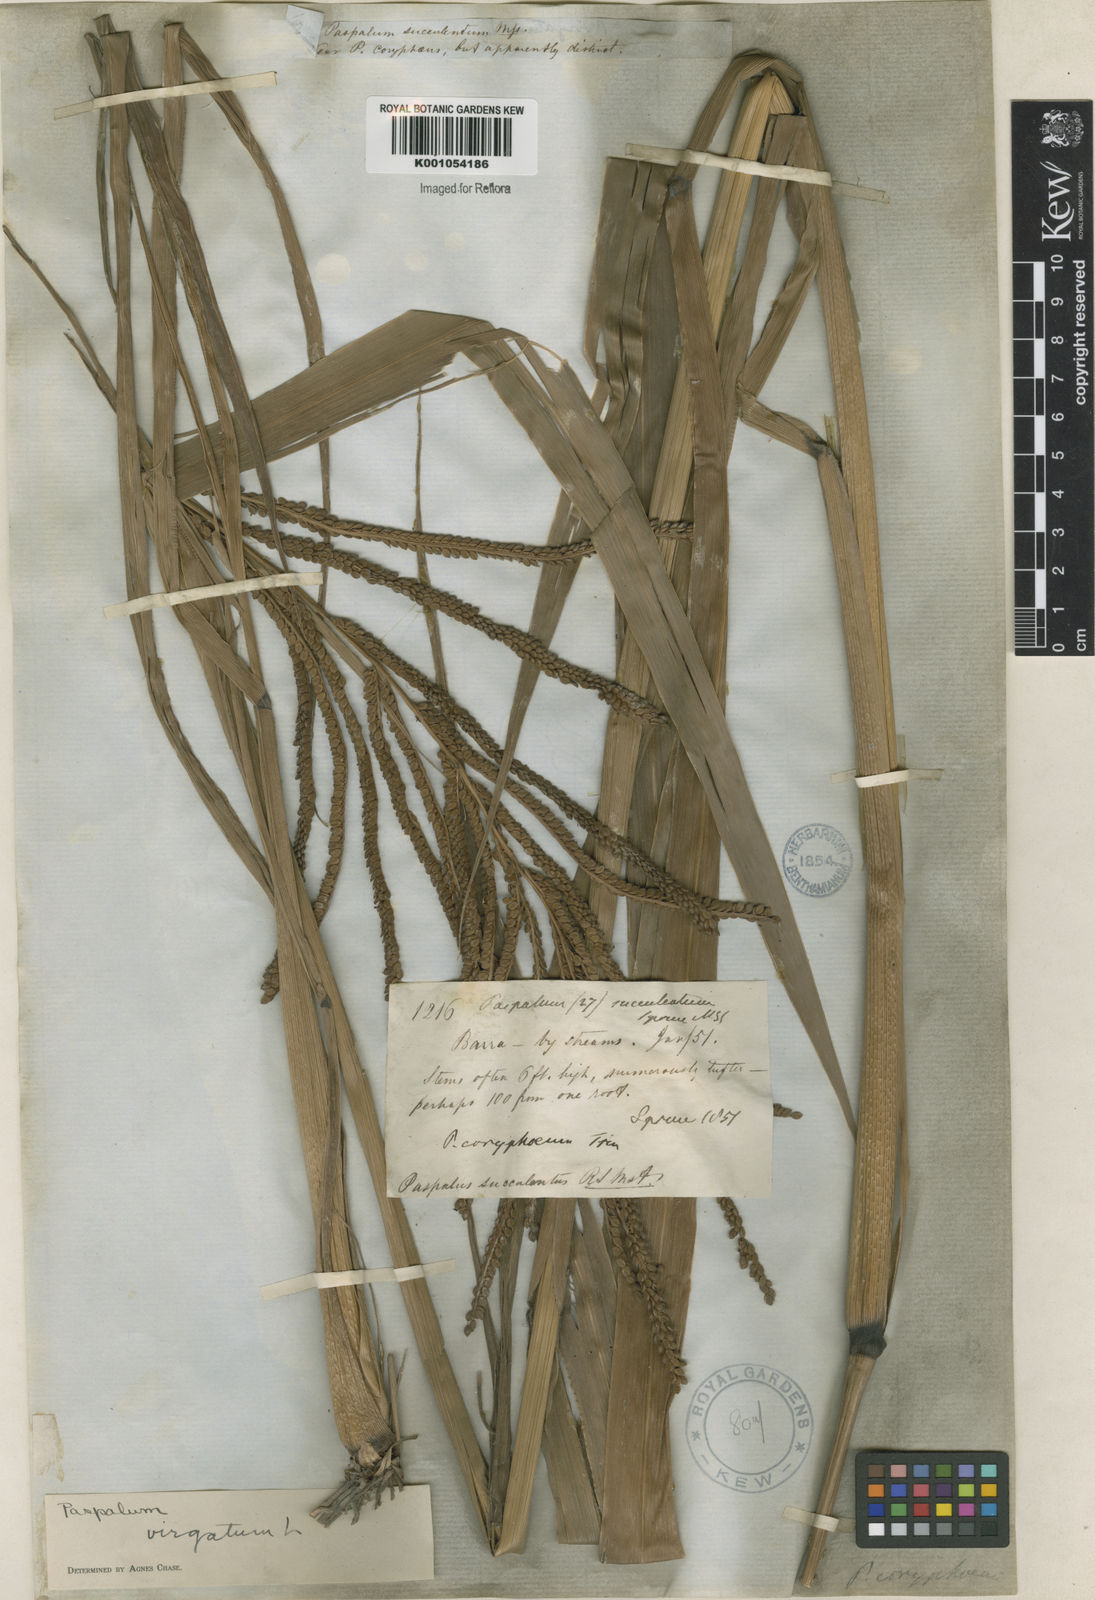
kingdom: Plantae
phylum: Tracheophyta
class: Liliopsida
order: Poales
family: Poaceae
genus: Paspalum
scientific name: Paspalum virgatum
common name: Talquezal
